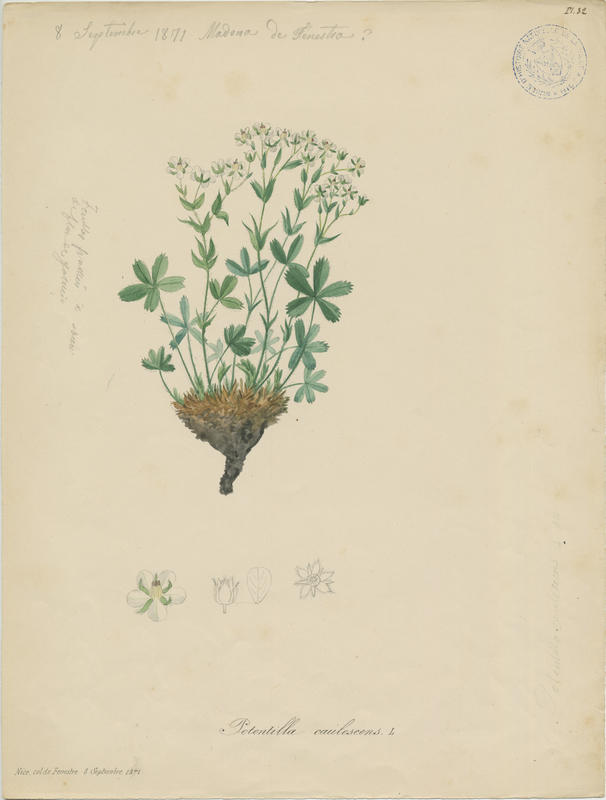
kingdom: Plantae
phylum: Tracheophyta
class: Magnoliopsida
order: Rosales
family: Rosaceae
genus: Potentilla
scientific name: Potentilla caulescens
